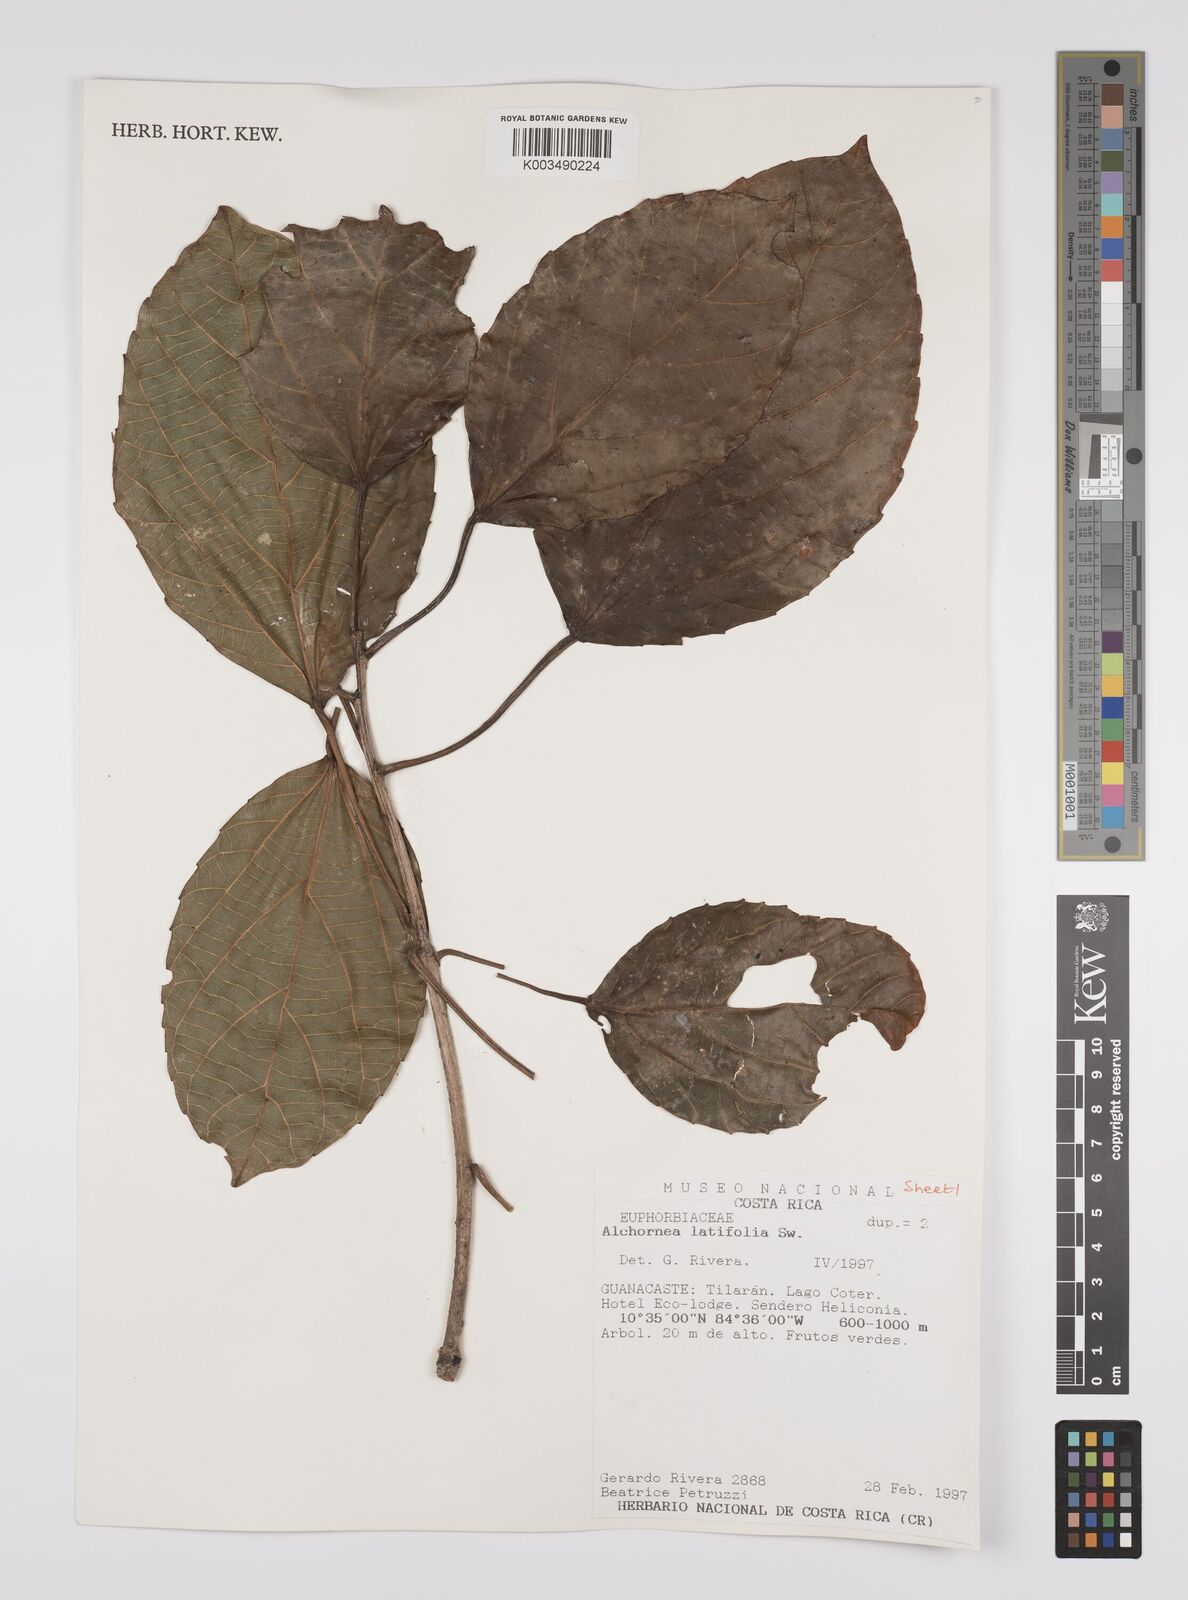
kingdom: Plantae
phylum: Tracheophyta
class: Magnoliopsida
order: Malpighiales
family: Euphorbiaceae
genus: Alchornea
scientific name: Alchornea latifolia
